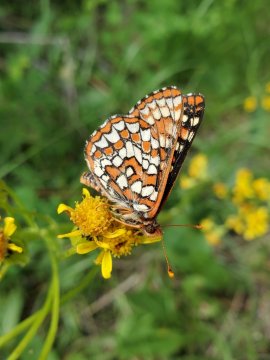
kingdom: Animalia
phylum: Arthropoda
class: Insecta
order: Lepidoptera
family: Nymphalidae
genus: Euphydryas
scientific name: Euphydryas
